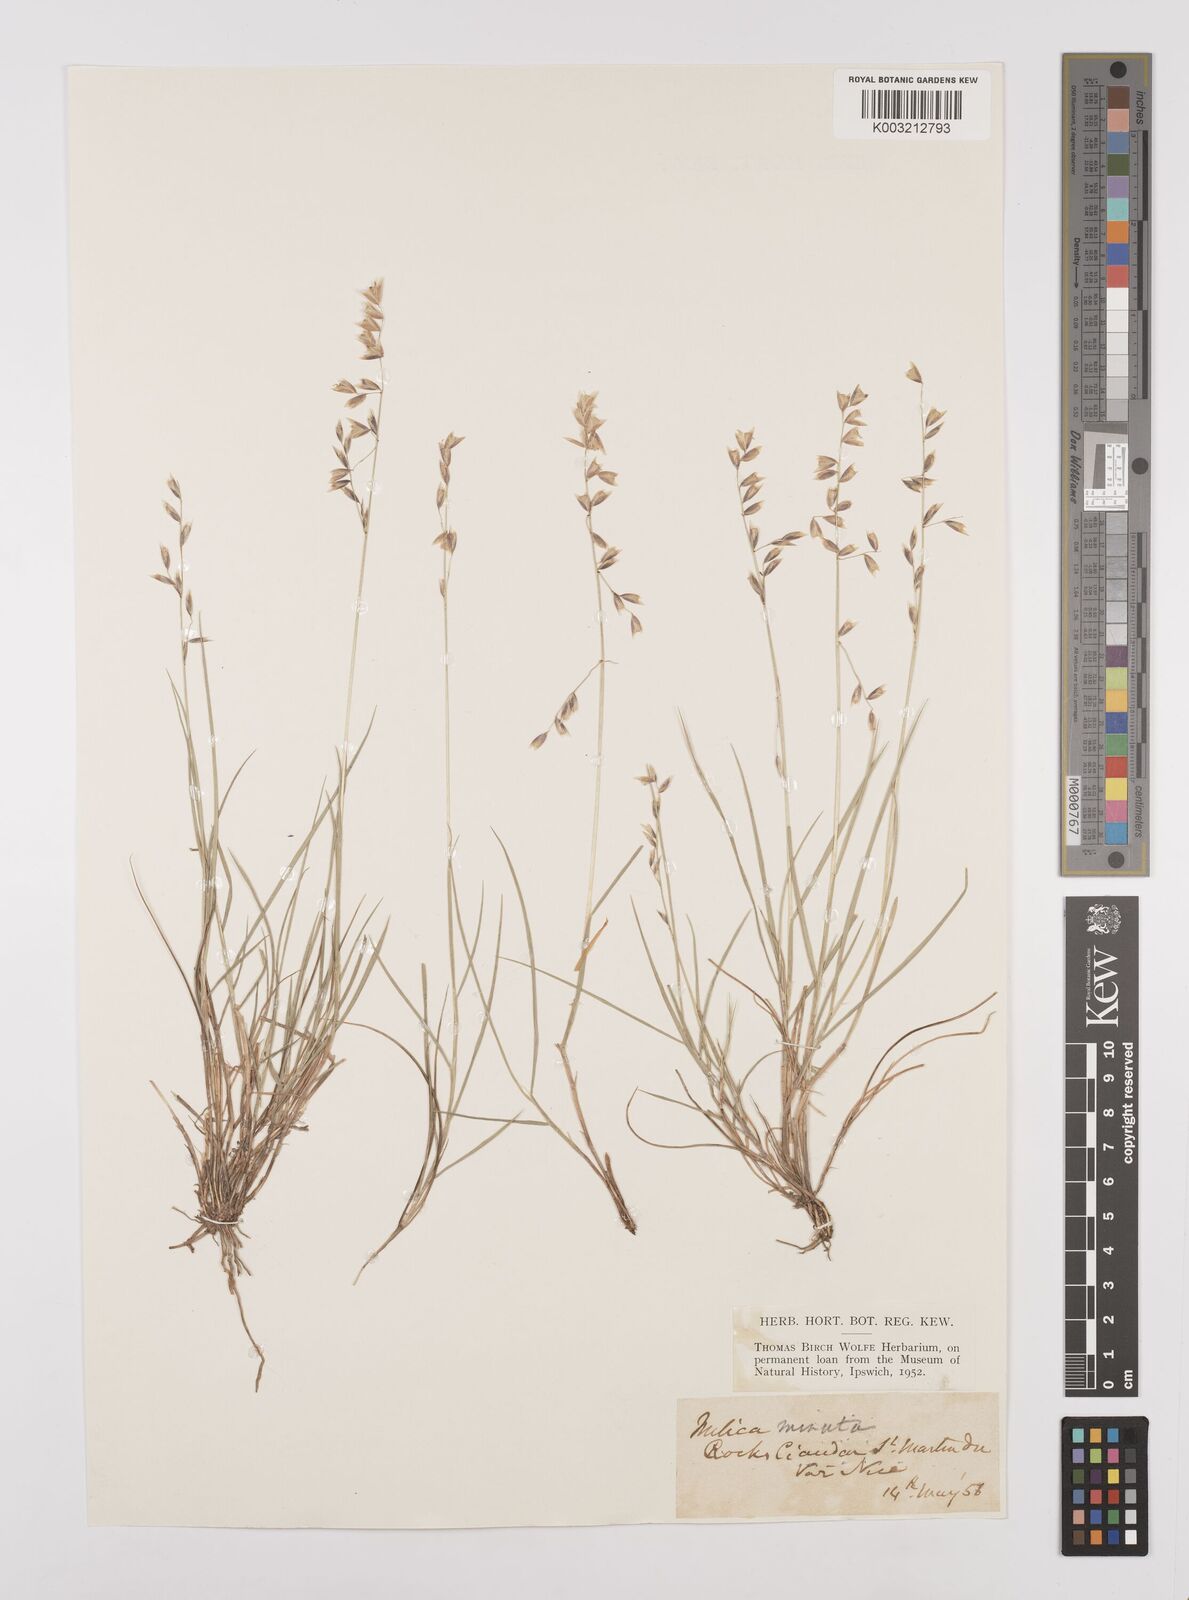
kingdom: Plantae
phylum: Tracheophyta
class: Liliopsida
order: Poales
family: Poaceae
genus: Melica
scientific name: Melica minuta
